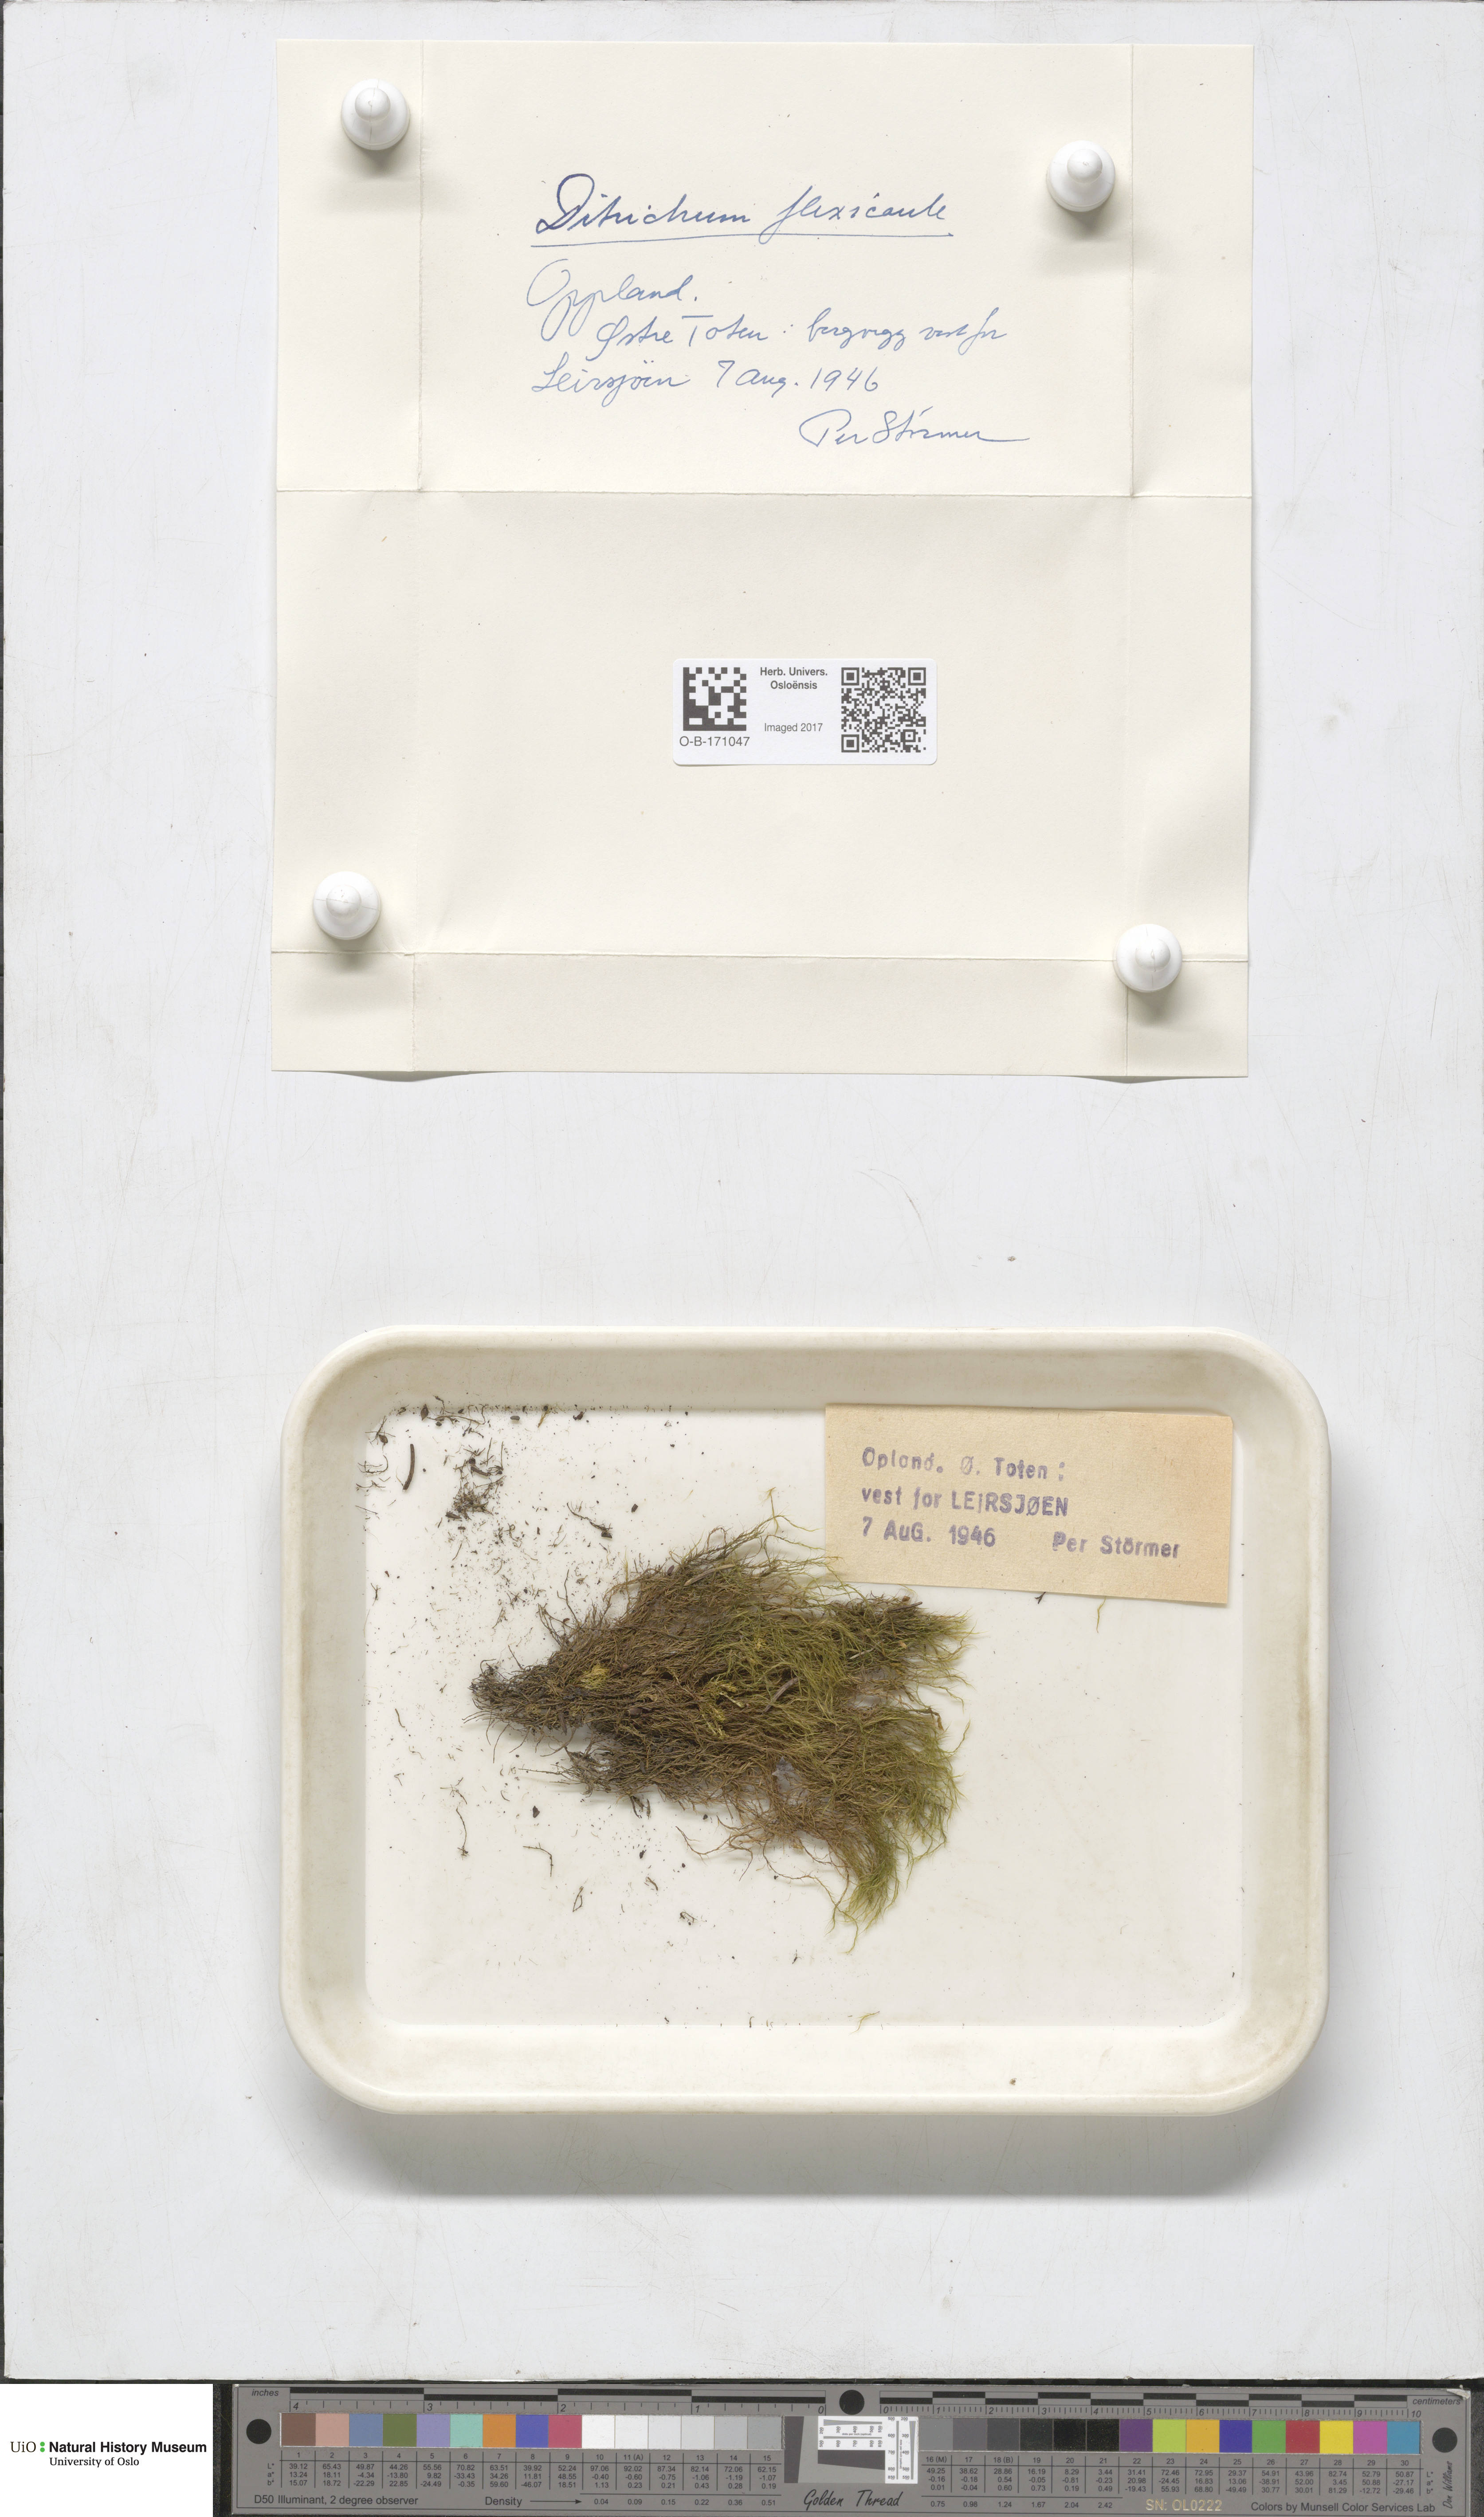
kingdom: Plantae
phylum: Bryophyta
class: Bryopsida
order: Scouleriales
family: Flexitrichaceae
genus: Flexitrichum
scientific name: Flexitrichum flexicaule
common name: Bendy ditrichum
